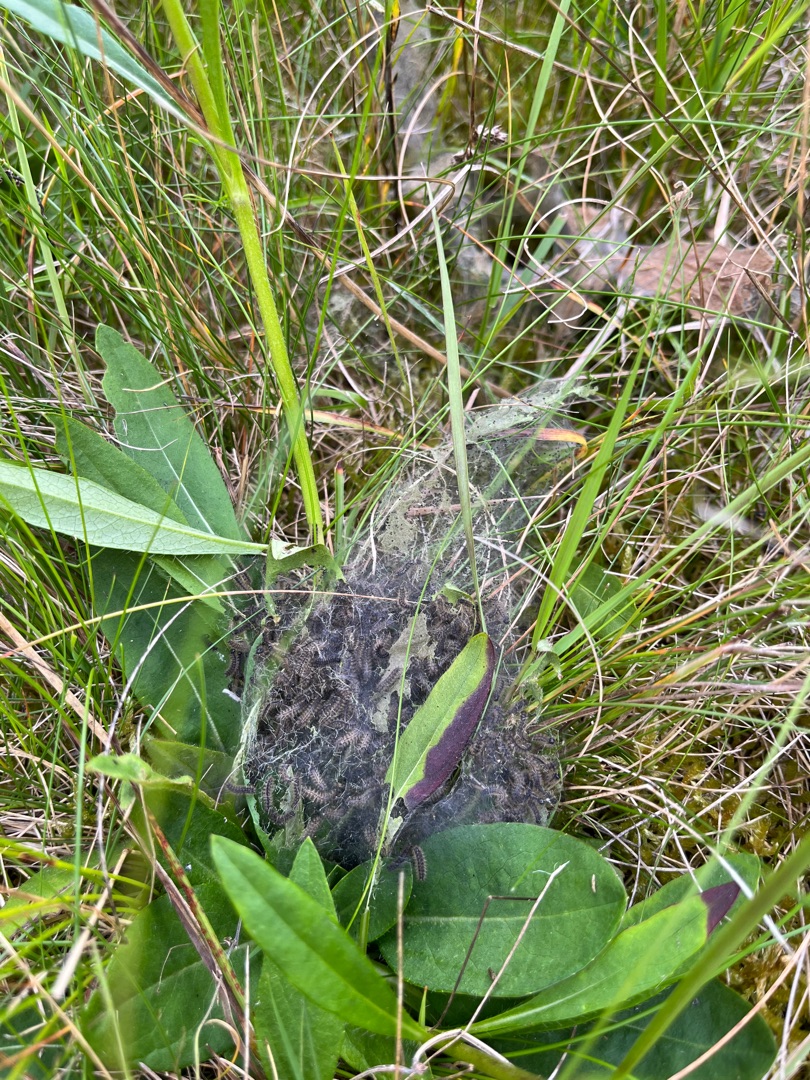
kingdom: Animalia
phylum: Arthropoda
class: Insecta
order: Lepidoptera
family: Nymphalidae
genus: Euphydryas
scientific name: Euphydryas aurinia
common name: Hedepletvinge
